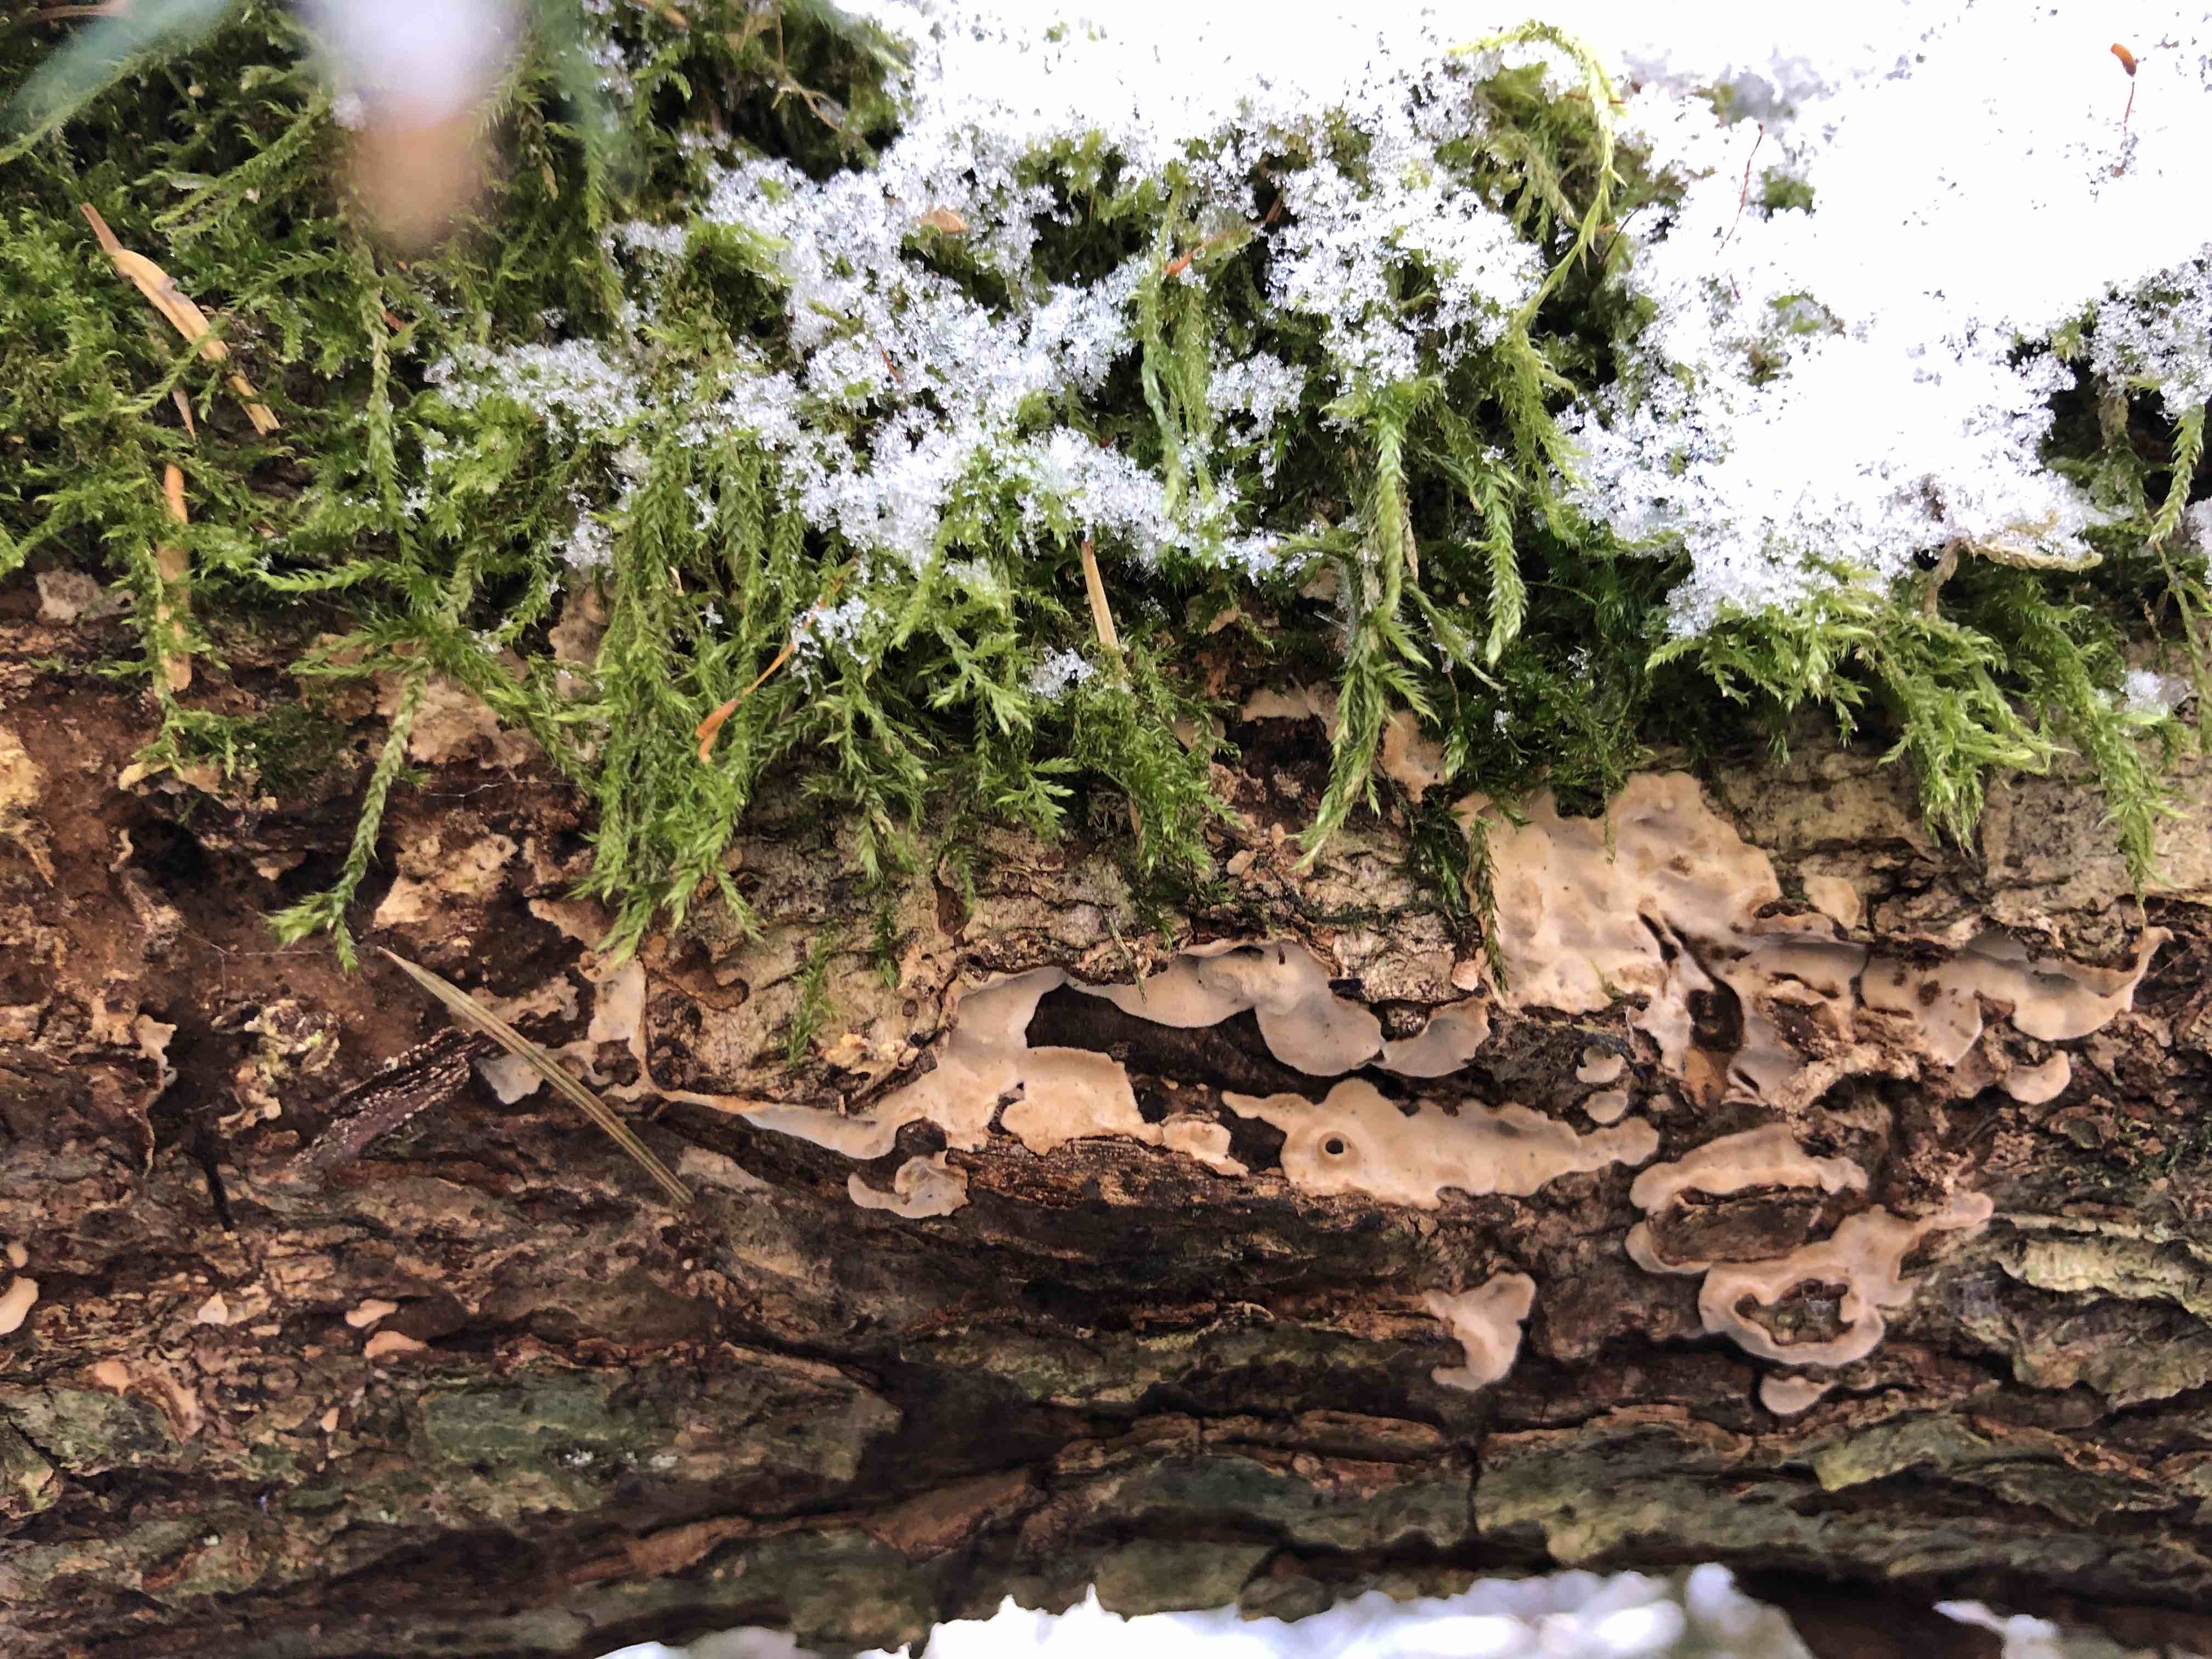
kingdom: Fungi
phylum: Basidiomycota
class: Agaricomycetes
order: Russulales
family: Stereaceae
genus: Stereum
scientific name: Stereum rugosum
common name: rynket lædersvamp
